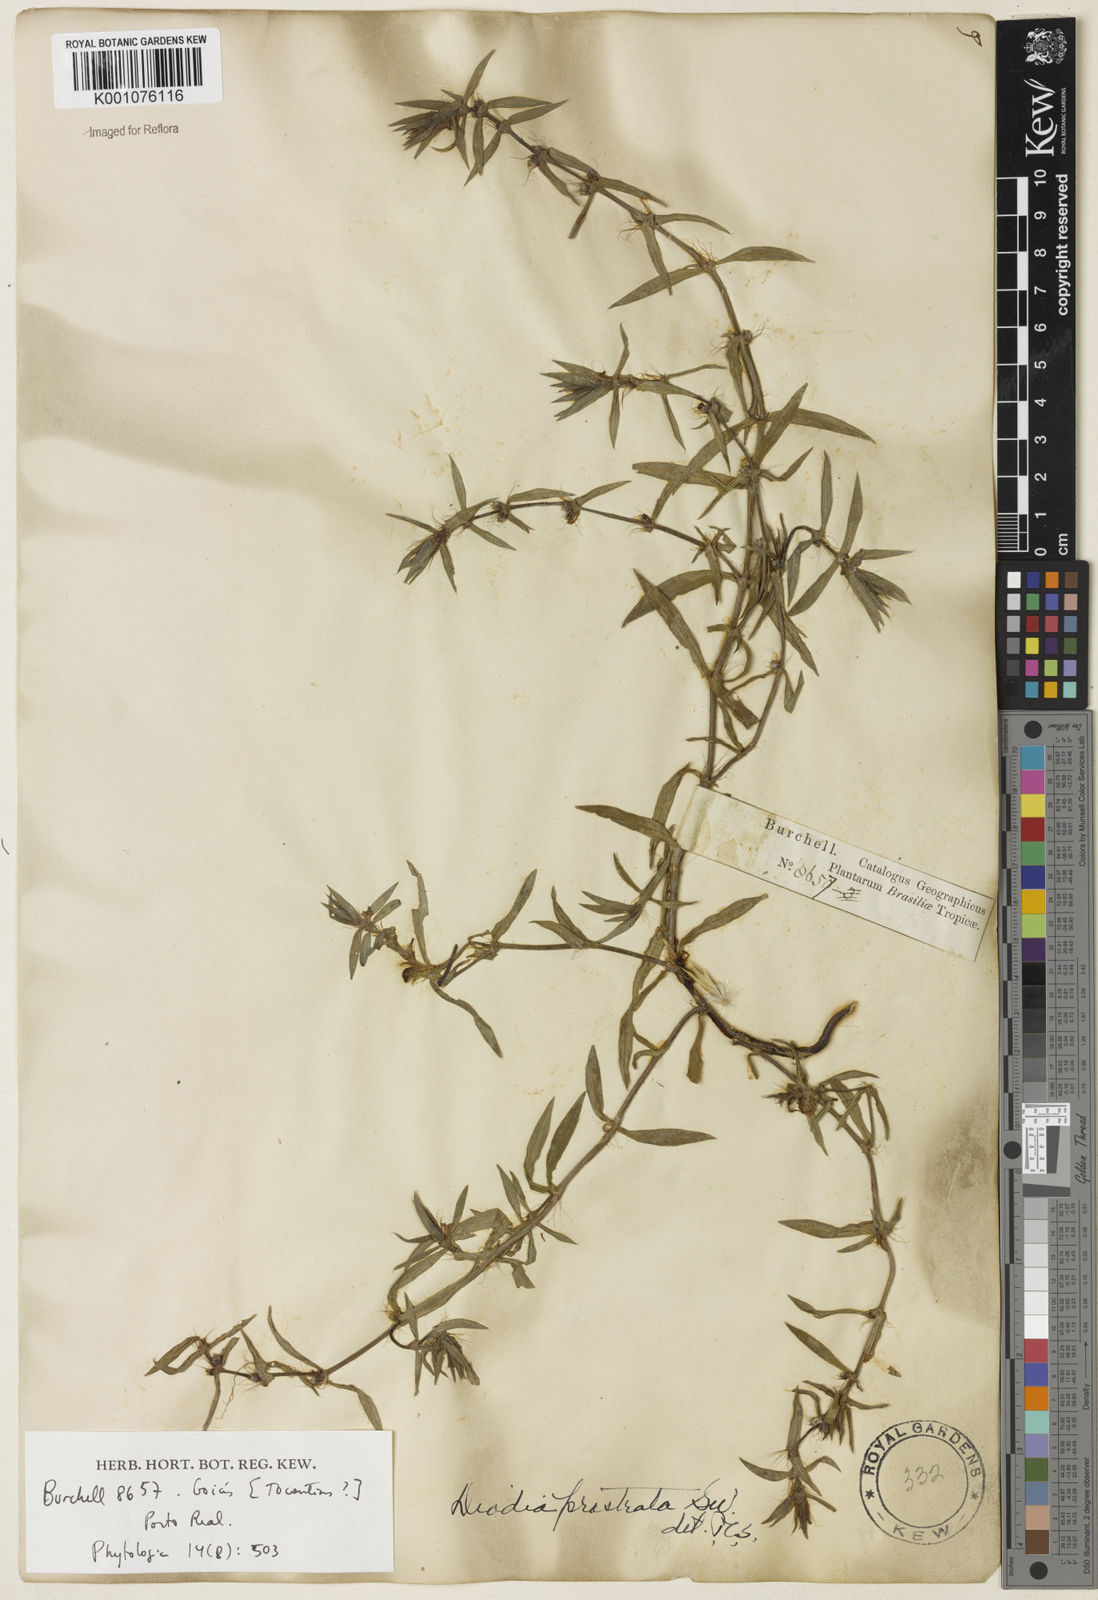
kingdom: Plantae
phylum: Tracheophyta
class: Magnoliopsida
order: Gentianales
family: Rubiaceae
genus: Hexasepalum
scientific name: Hexasepalum teres
